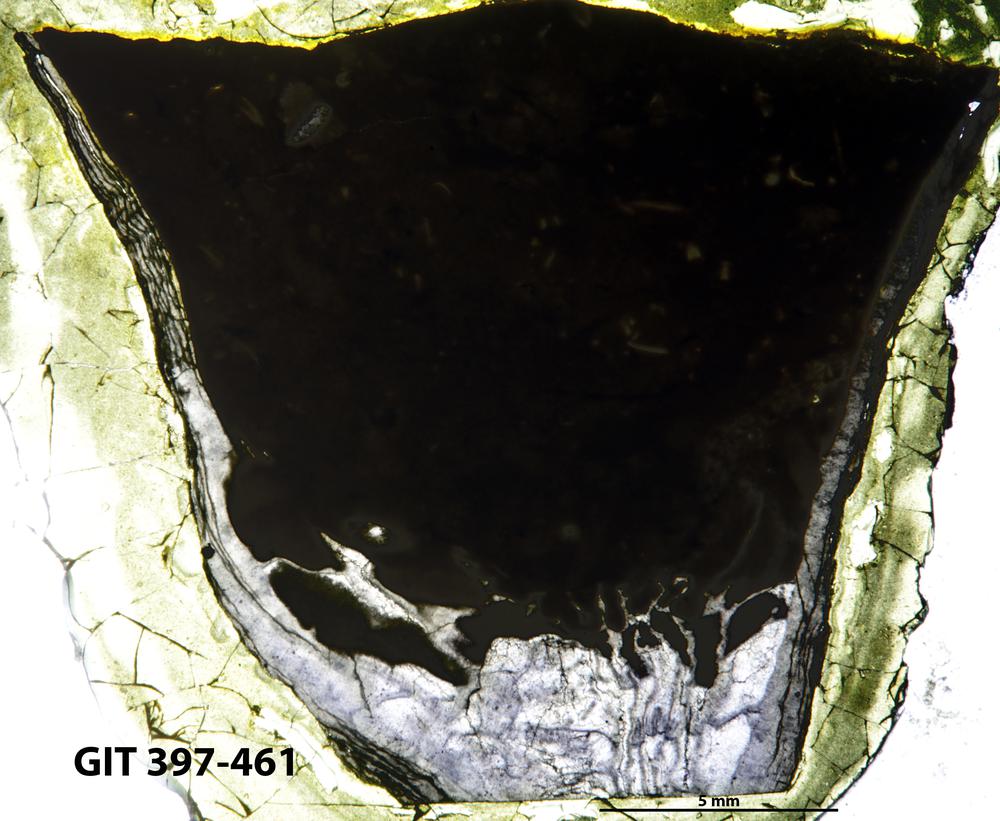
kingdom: Animalia
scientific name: Animalia
